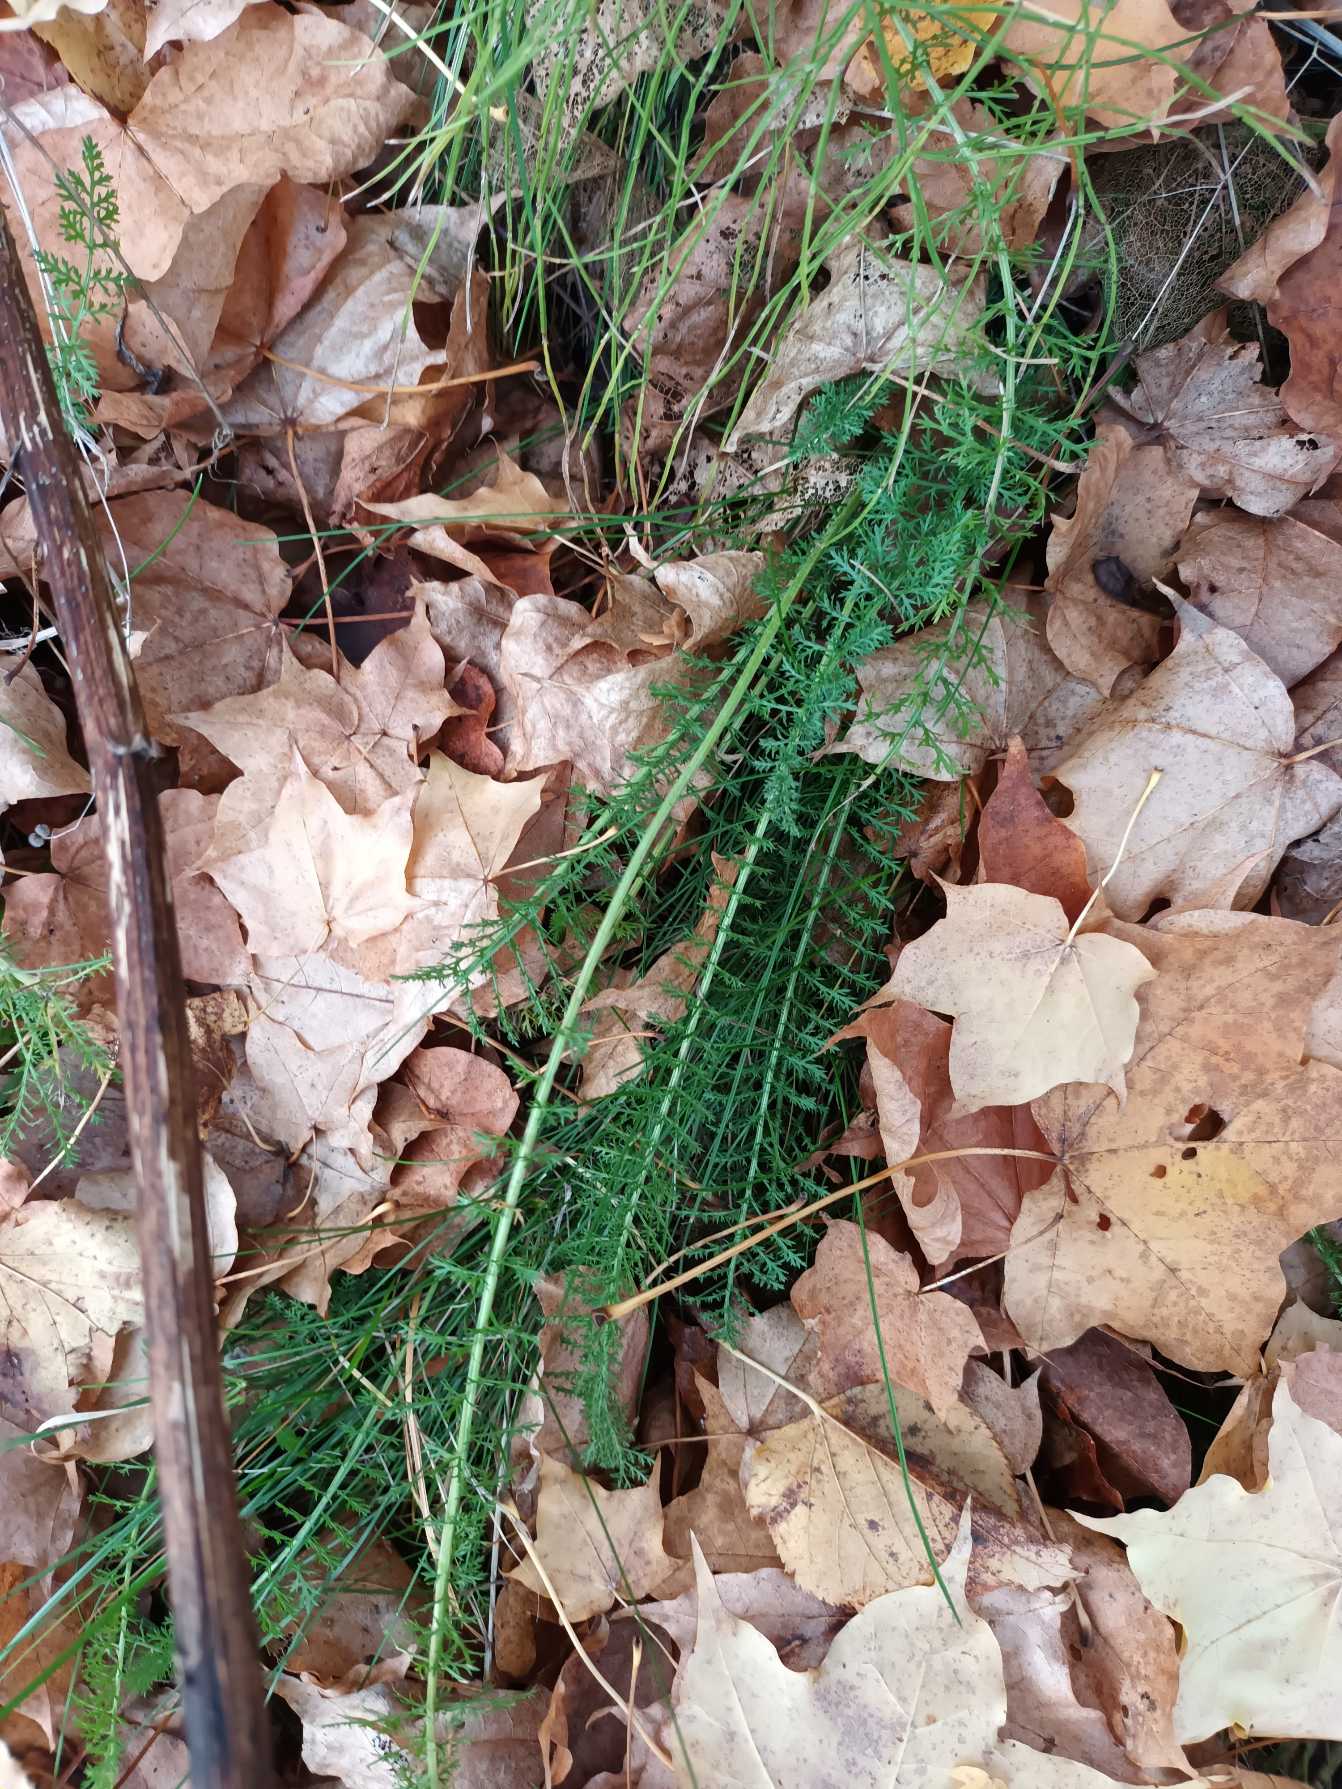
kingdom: Plantae
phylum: Tracheophyta
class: Magnoliopsida
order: Asterales
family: Asteraceae
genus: Achillea
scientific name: Achillea millefolium
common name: Almindelig røllike
